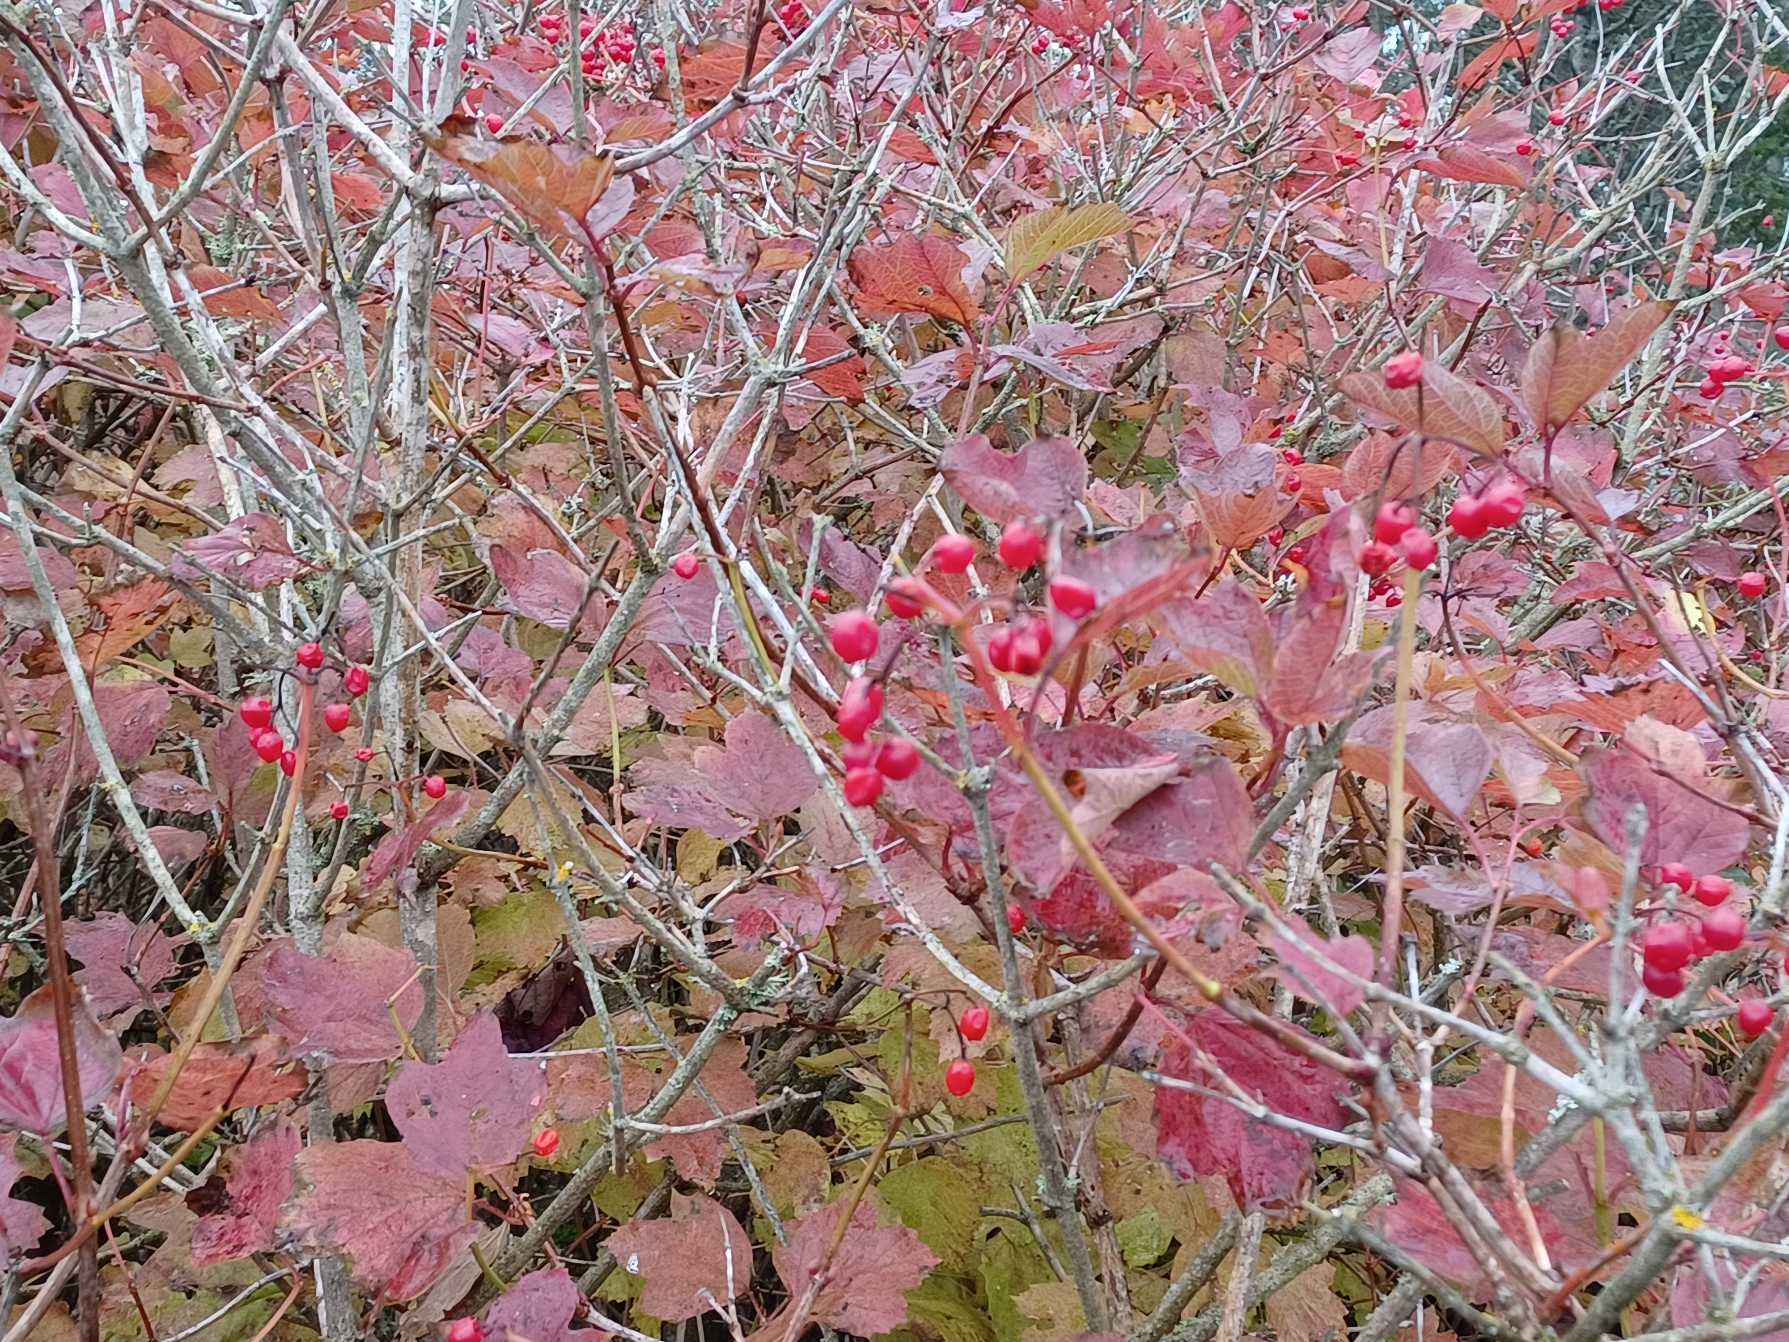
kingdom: Plantae
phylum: Tracheophyta
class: Magnoliopsida
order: Dipsacales
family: Viburnaceae
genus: Viburnum
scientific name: Viburnum opulus
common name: Kvalkved
